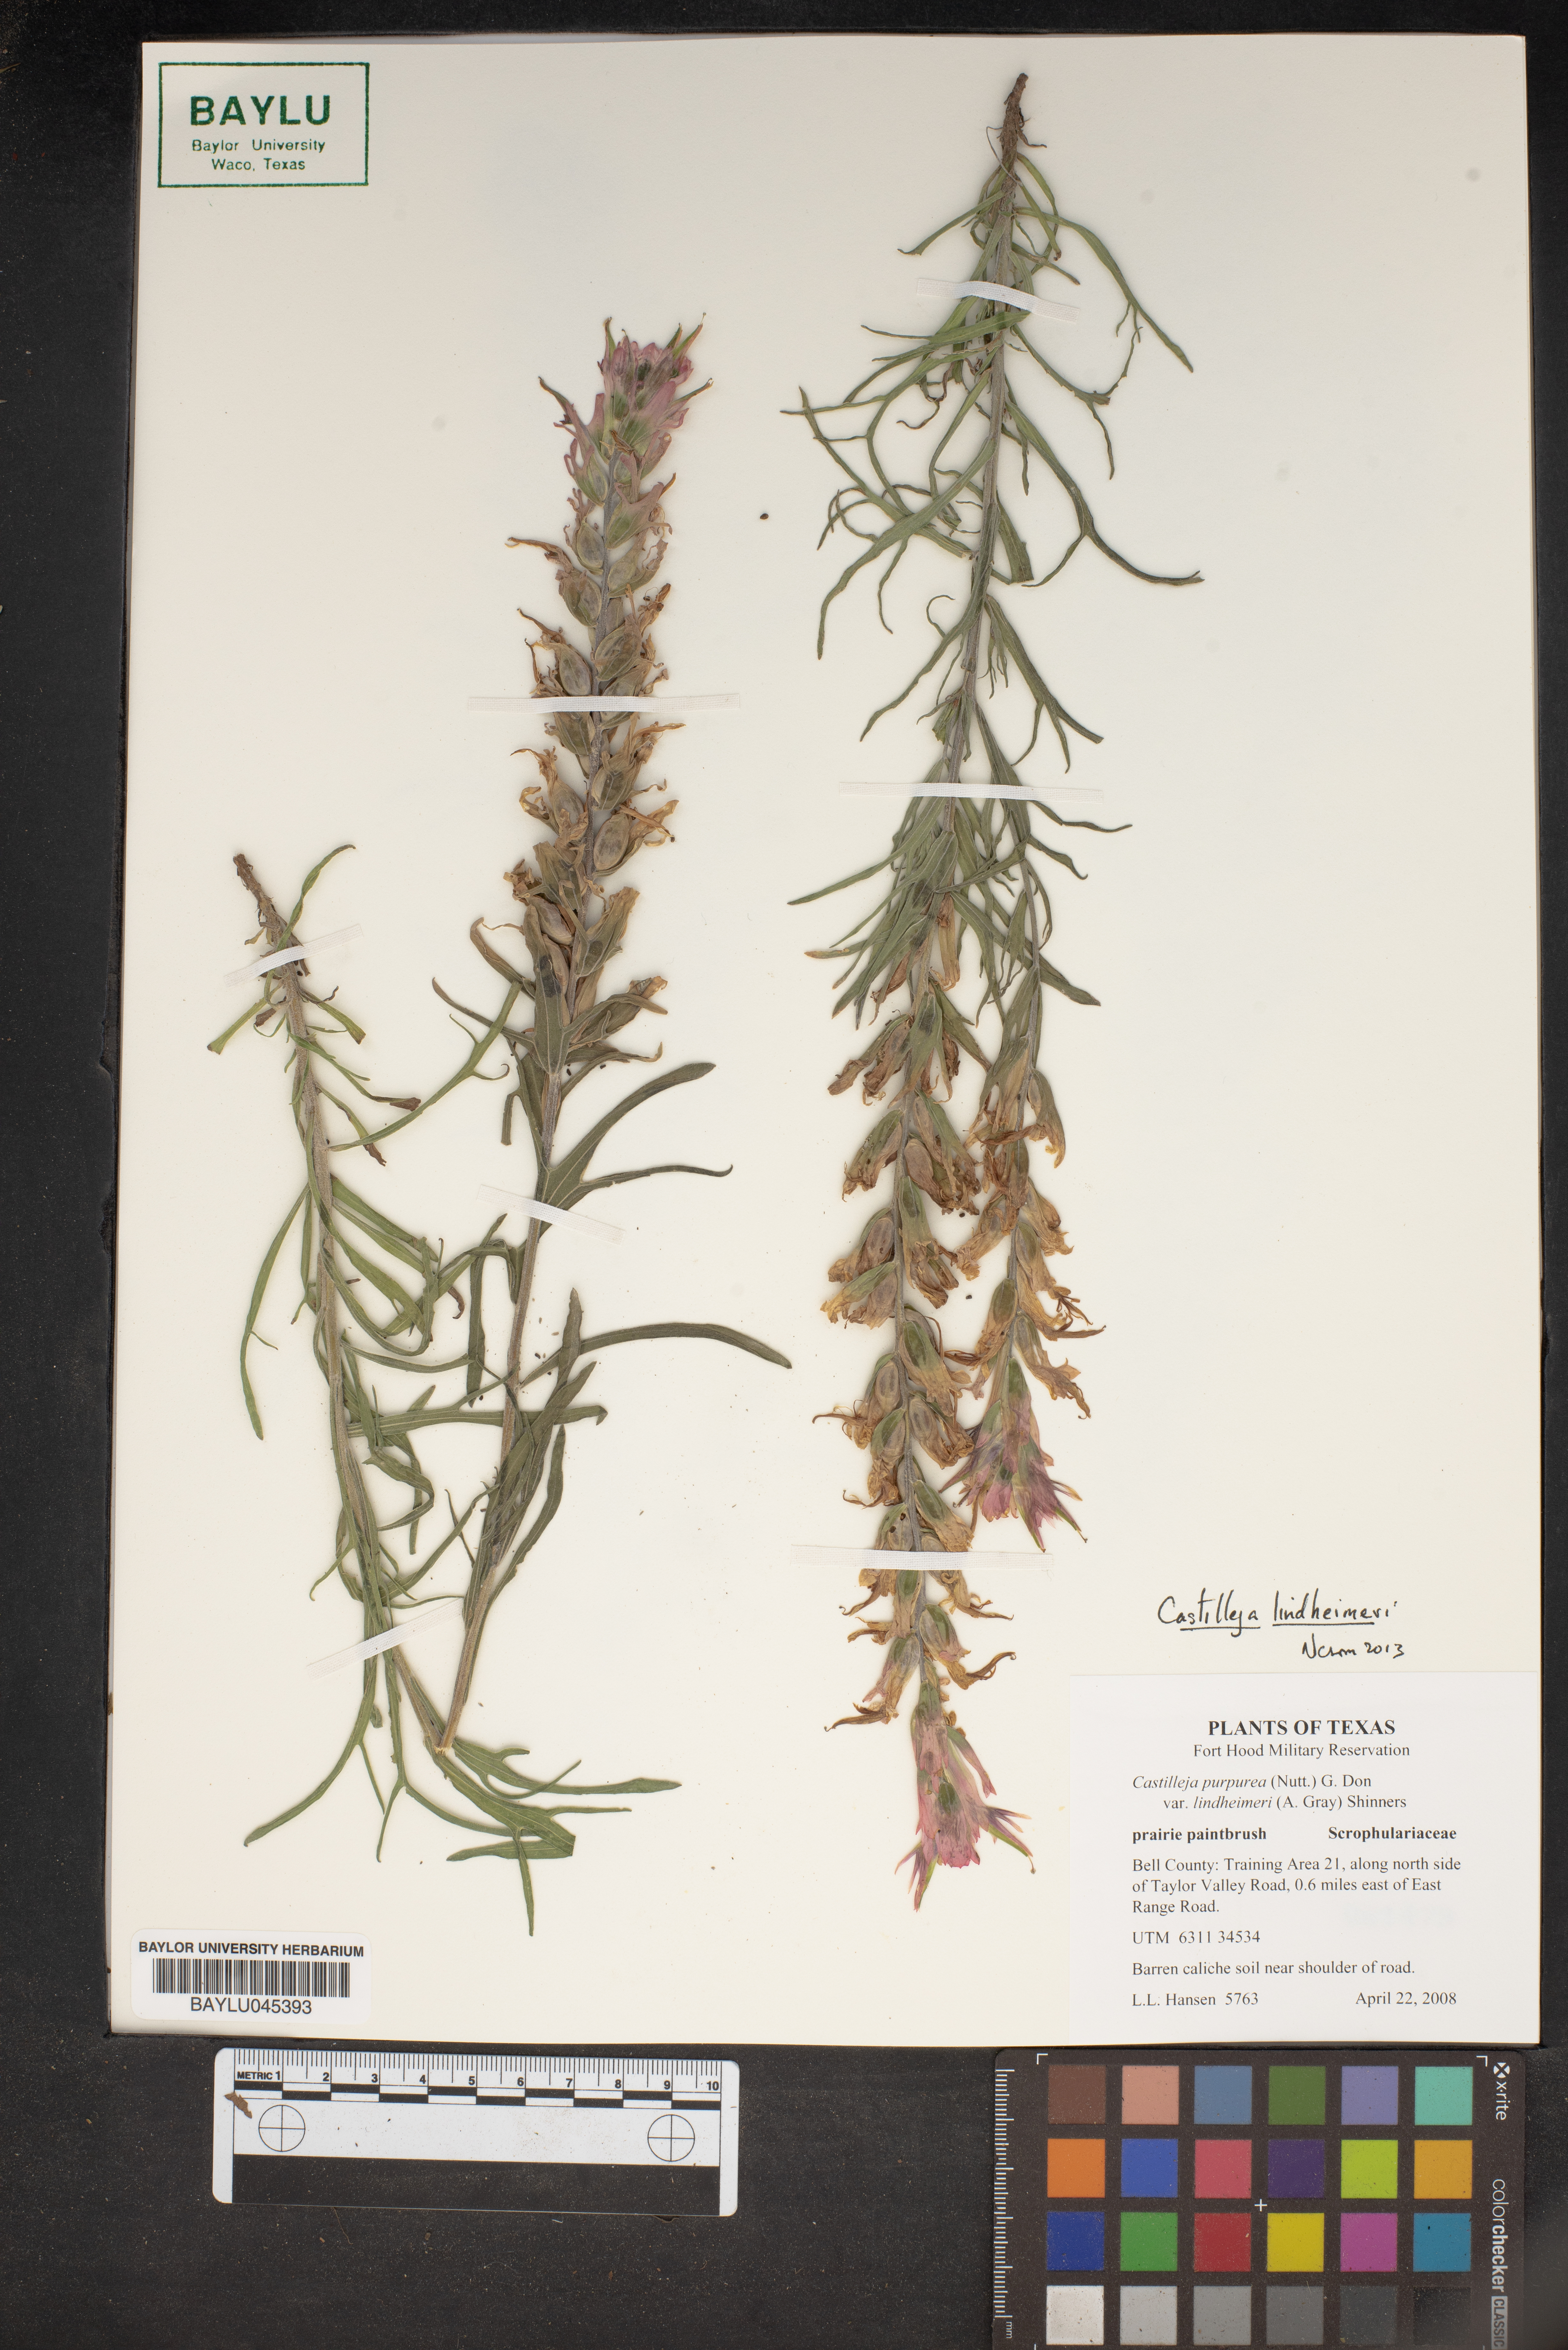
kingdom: Plantae
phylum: Tracheophyta
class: Magnoliopsida
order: Lamiales
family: Orobanchaceae
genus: Castilleja
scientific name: Castilleja purpurea
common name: Plains paintbrush
